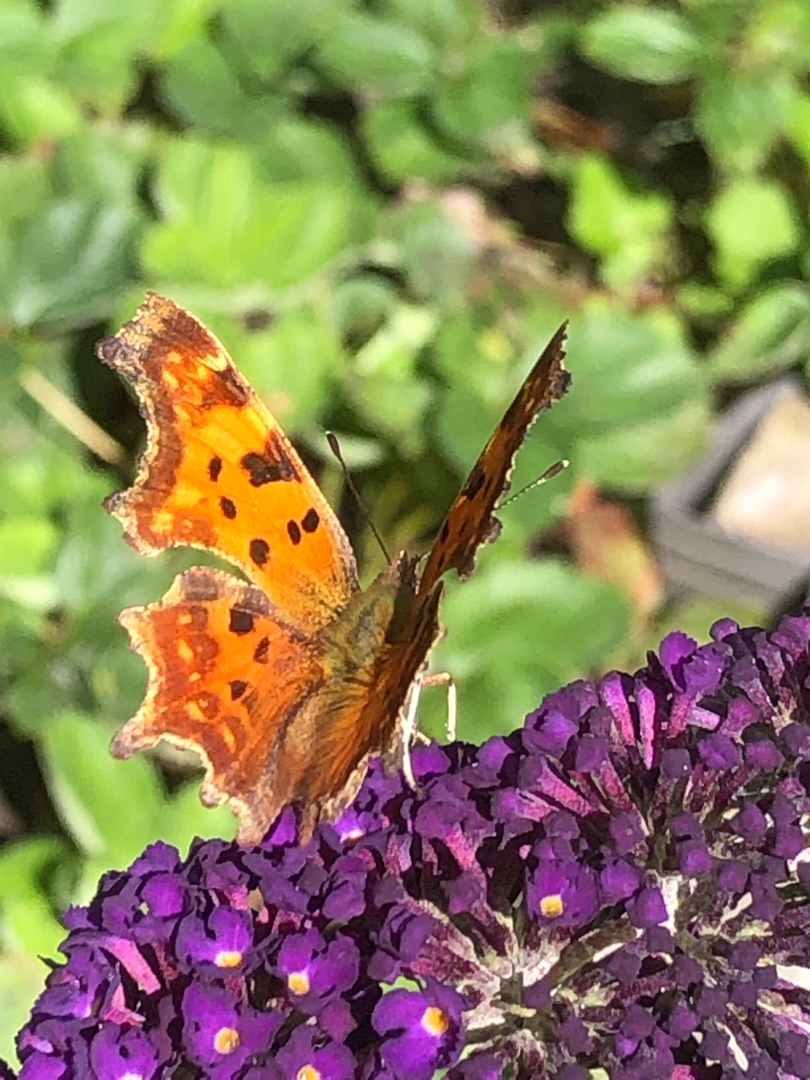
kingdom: Animalia
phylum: Arthropoda
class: Insecta
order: Lepidoptera
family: Nymphalidae
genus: Polygonia
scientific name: Polygonia c-album
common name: Det hvide C
